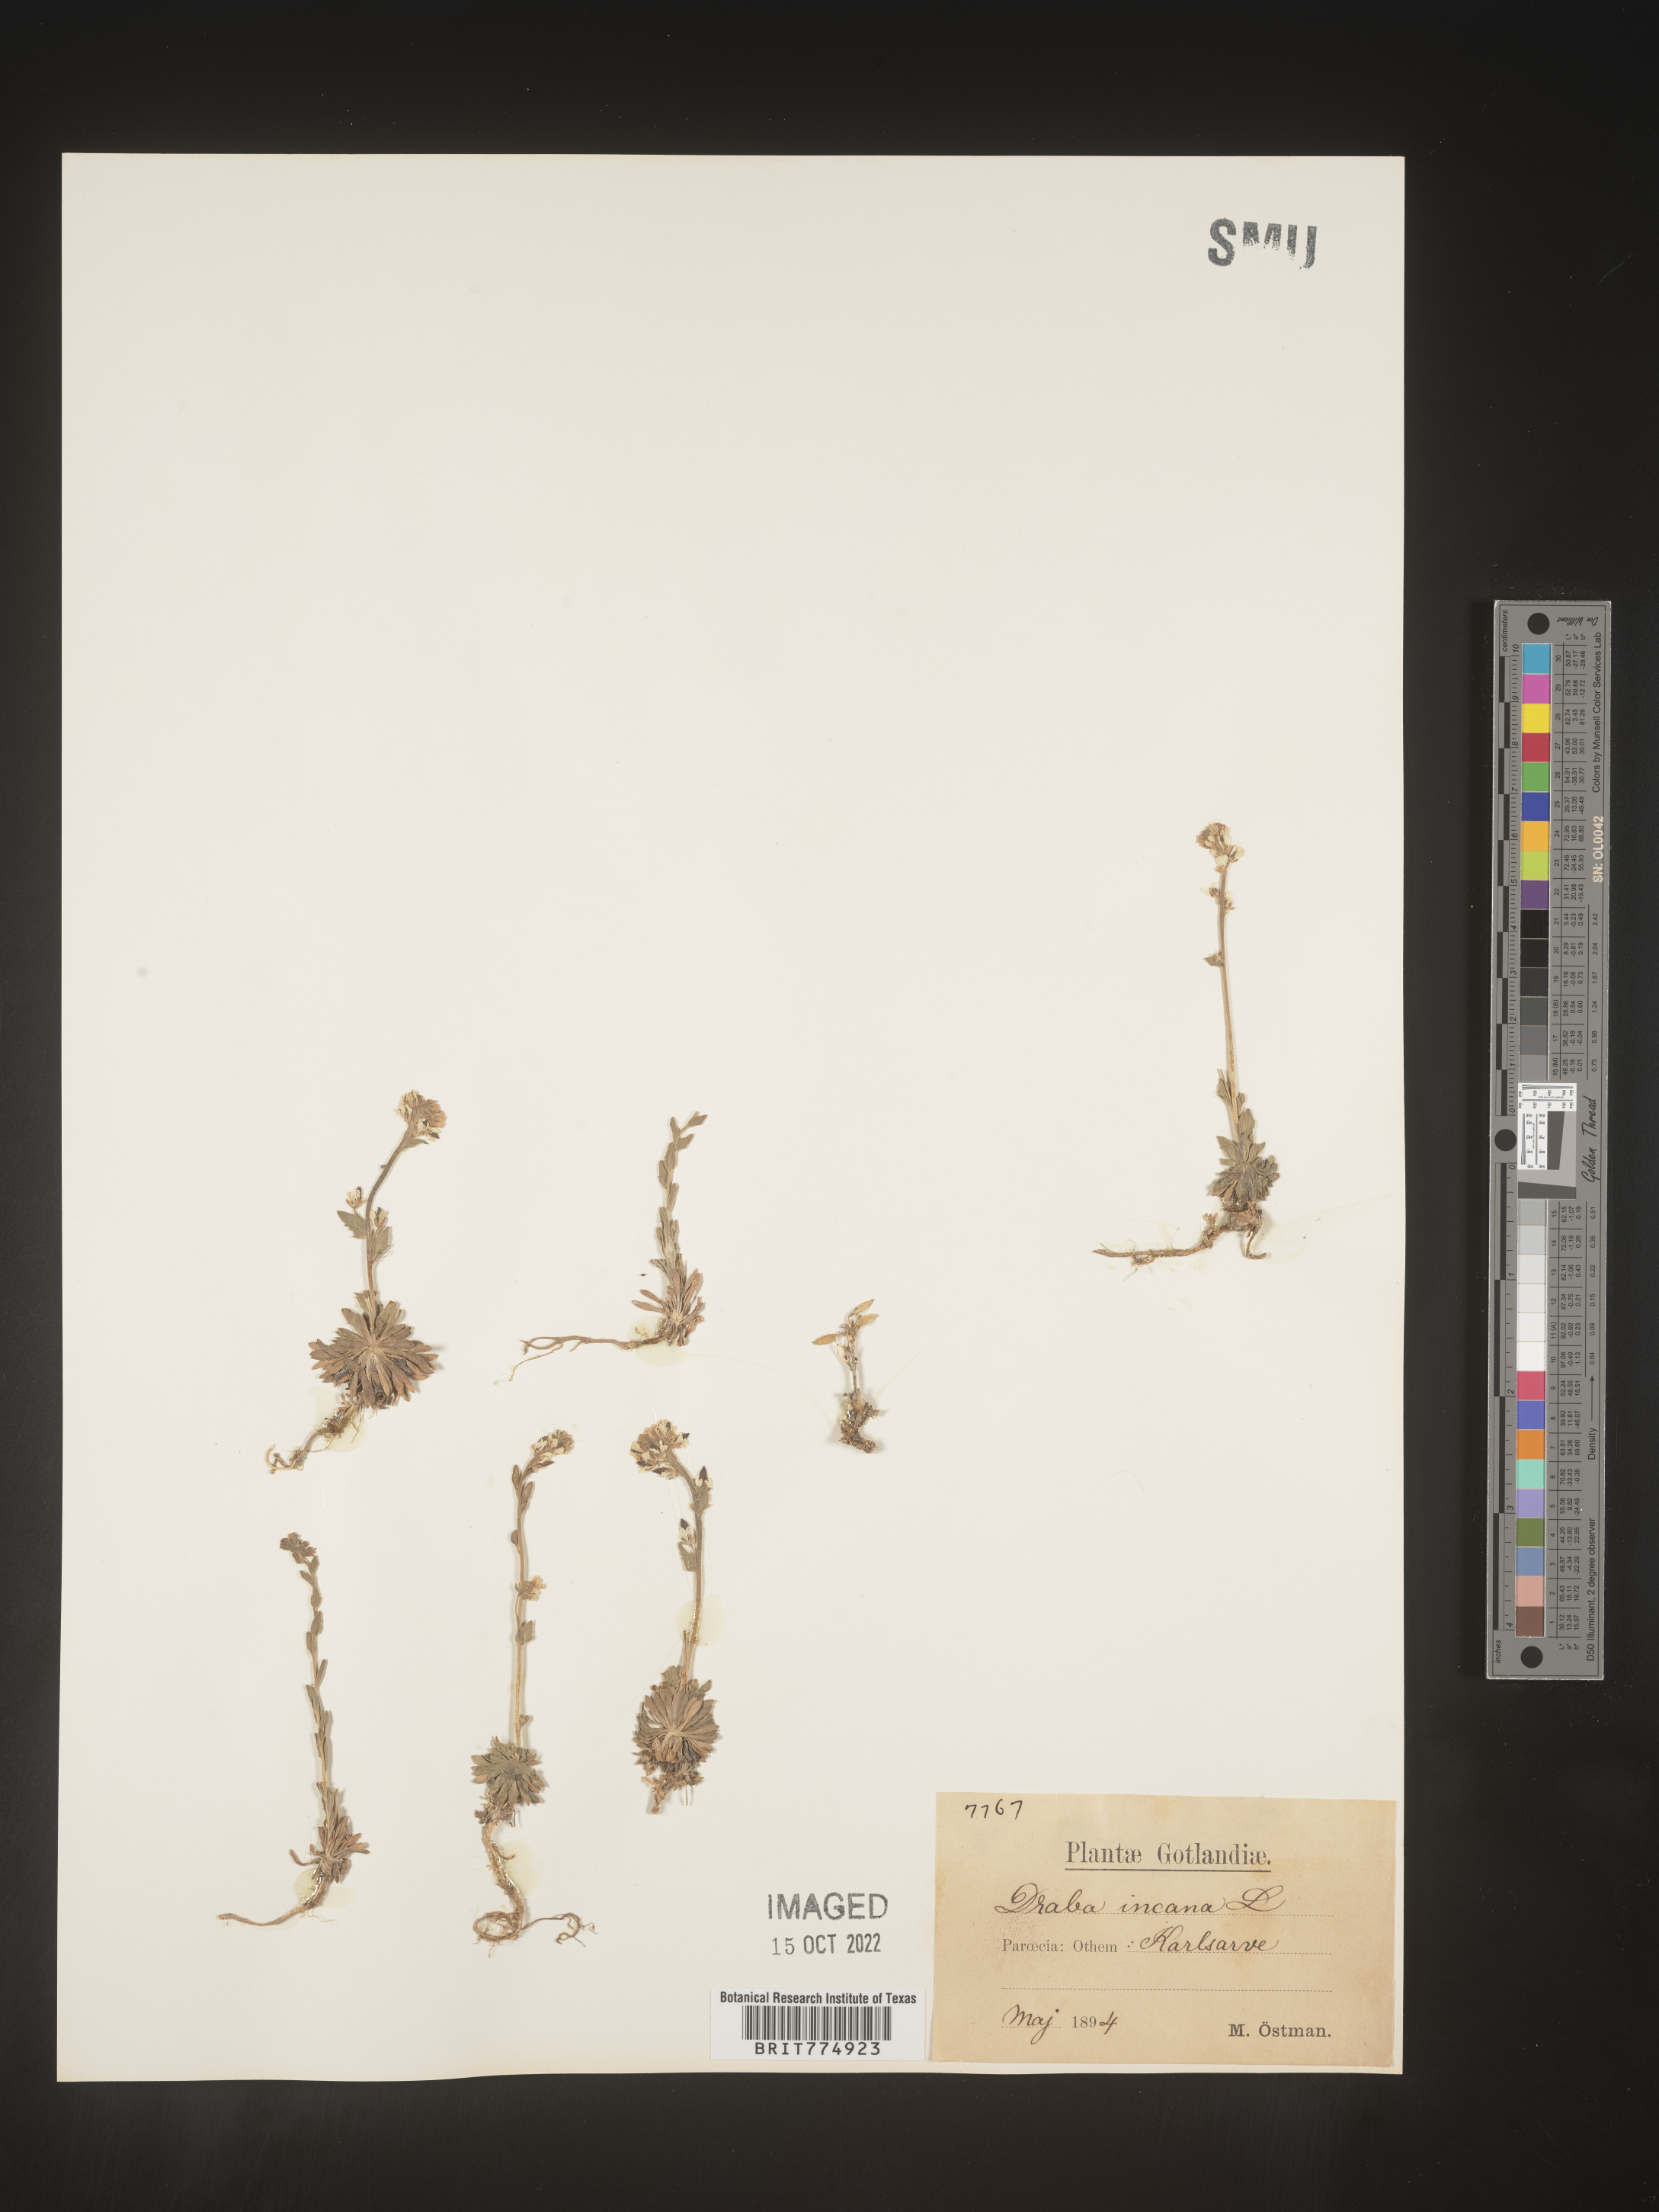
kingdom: Plantae
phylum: Tracheophyta
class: Magnoliopsida
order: Brassicales
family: Brassicaceae
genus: Draba
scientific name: Draba
